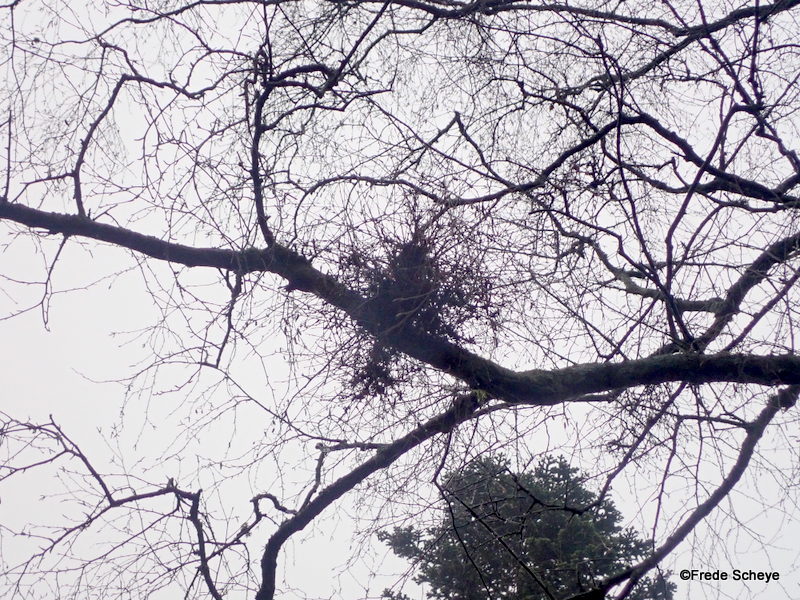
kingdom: Fungi
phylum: Ascomycota
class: Taphrinomycetes
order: Taphrinales
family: Taphrinaceae
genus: Taphrina
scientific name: Taphrina betulina
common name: hekse-sækdug
